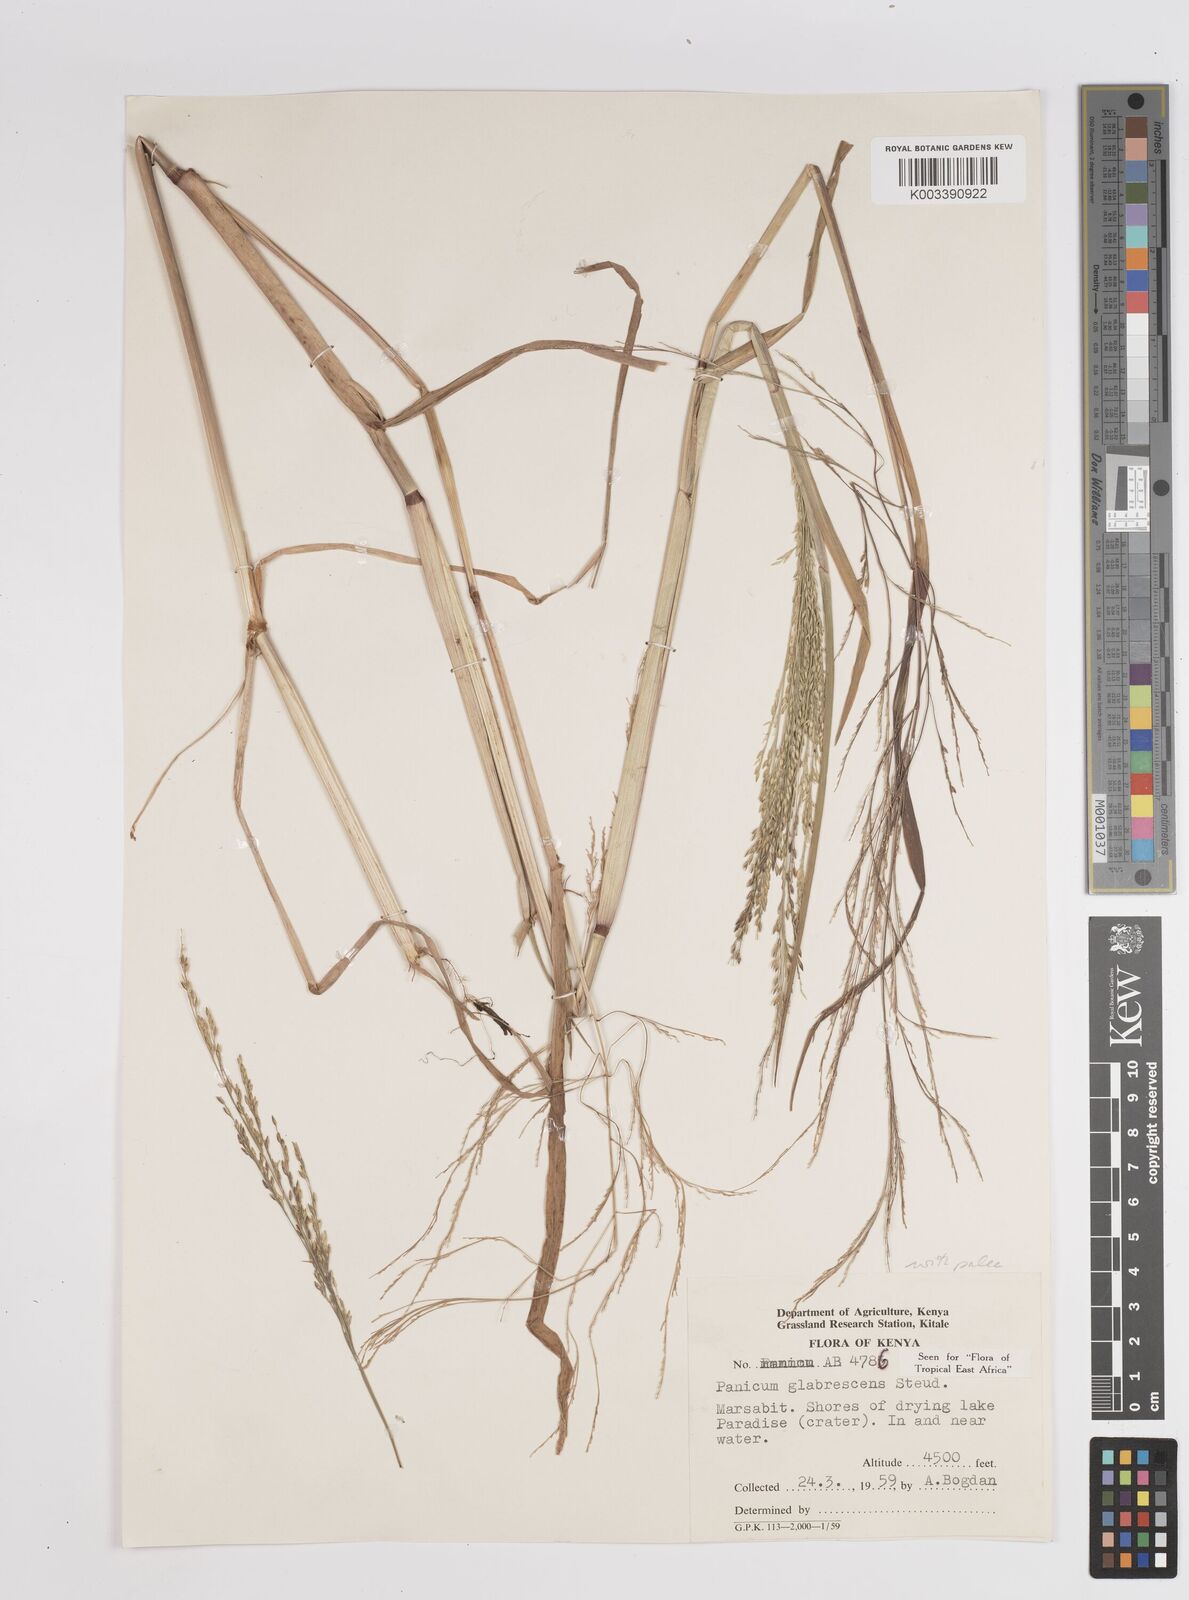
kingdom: Plantae
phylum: Tracheophyta
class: Liliopsida
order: Poales
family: Poaceae
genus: Panicum
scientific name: Panicum subalbidum
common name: Elbow buffalo grass
